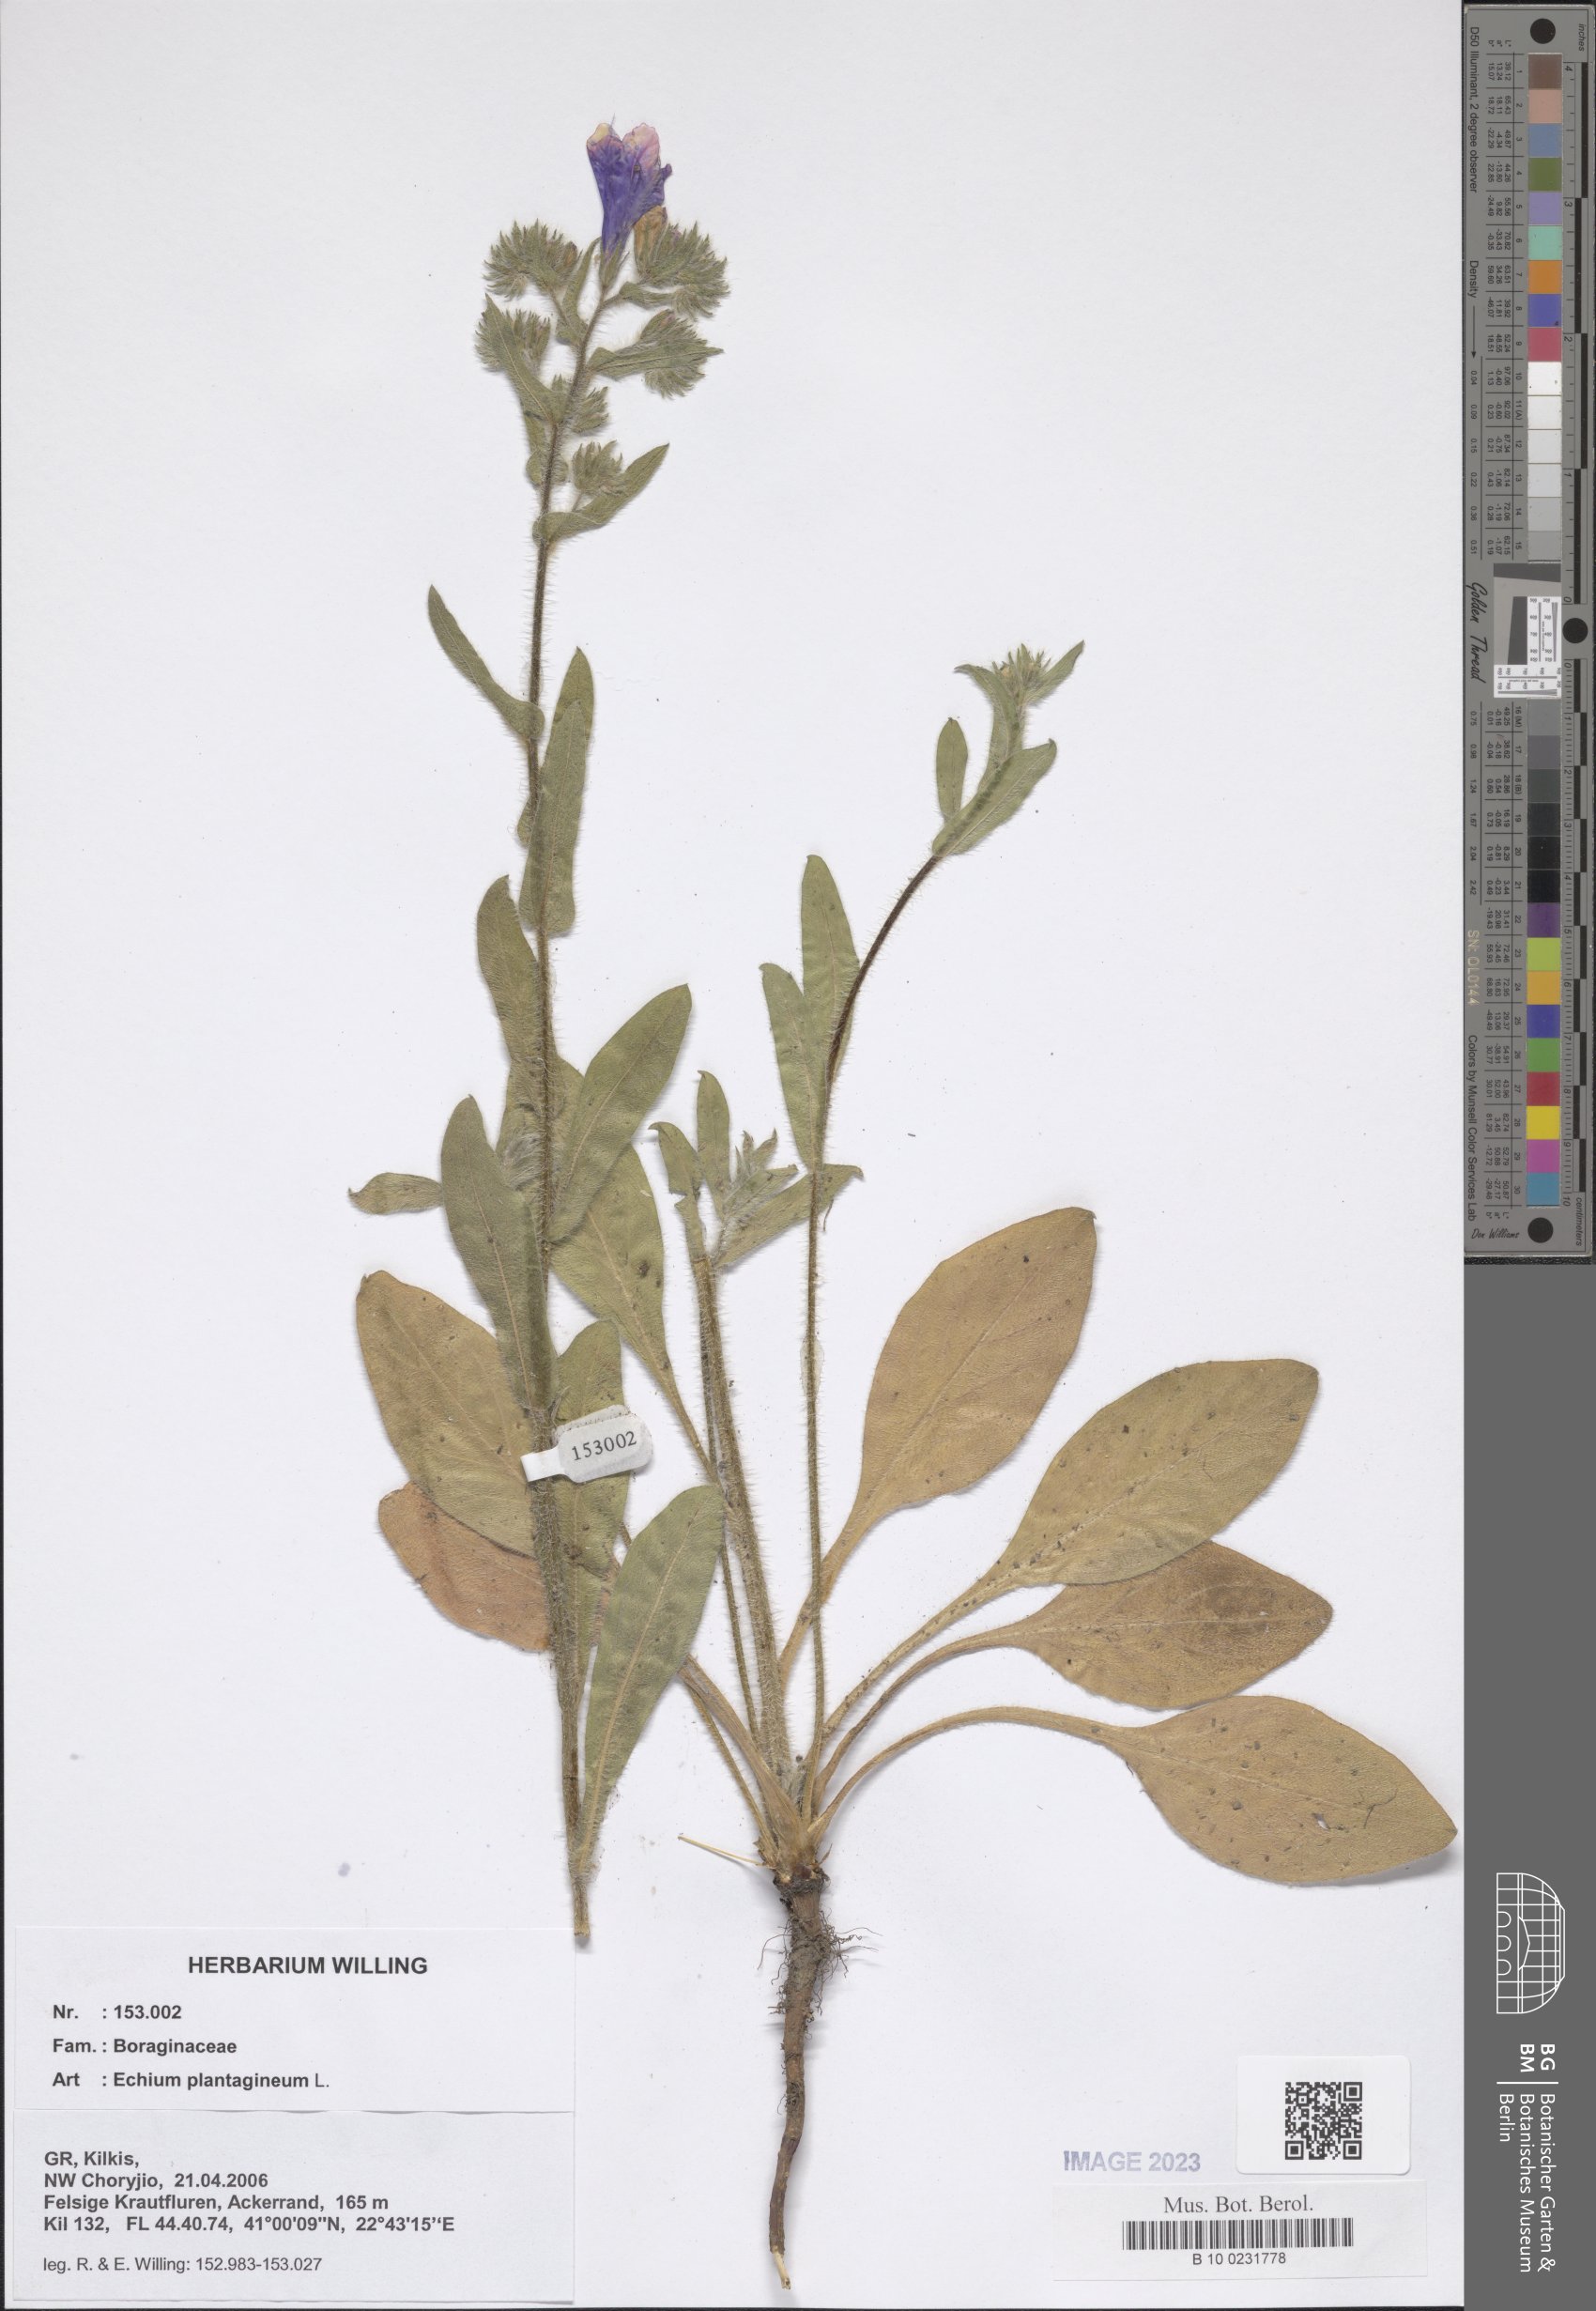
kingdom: Plantae
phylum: Tracheophyta
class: Magnoliopsida
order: Boraginales
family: Boraginaceae
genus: Echium
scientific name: Echium plantagineum
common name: Purple viper's-bugloss
